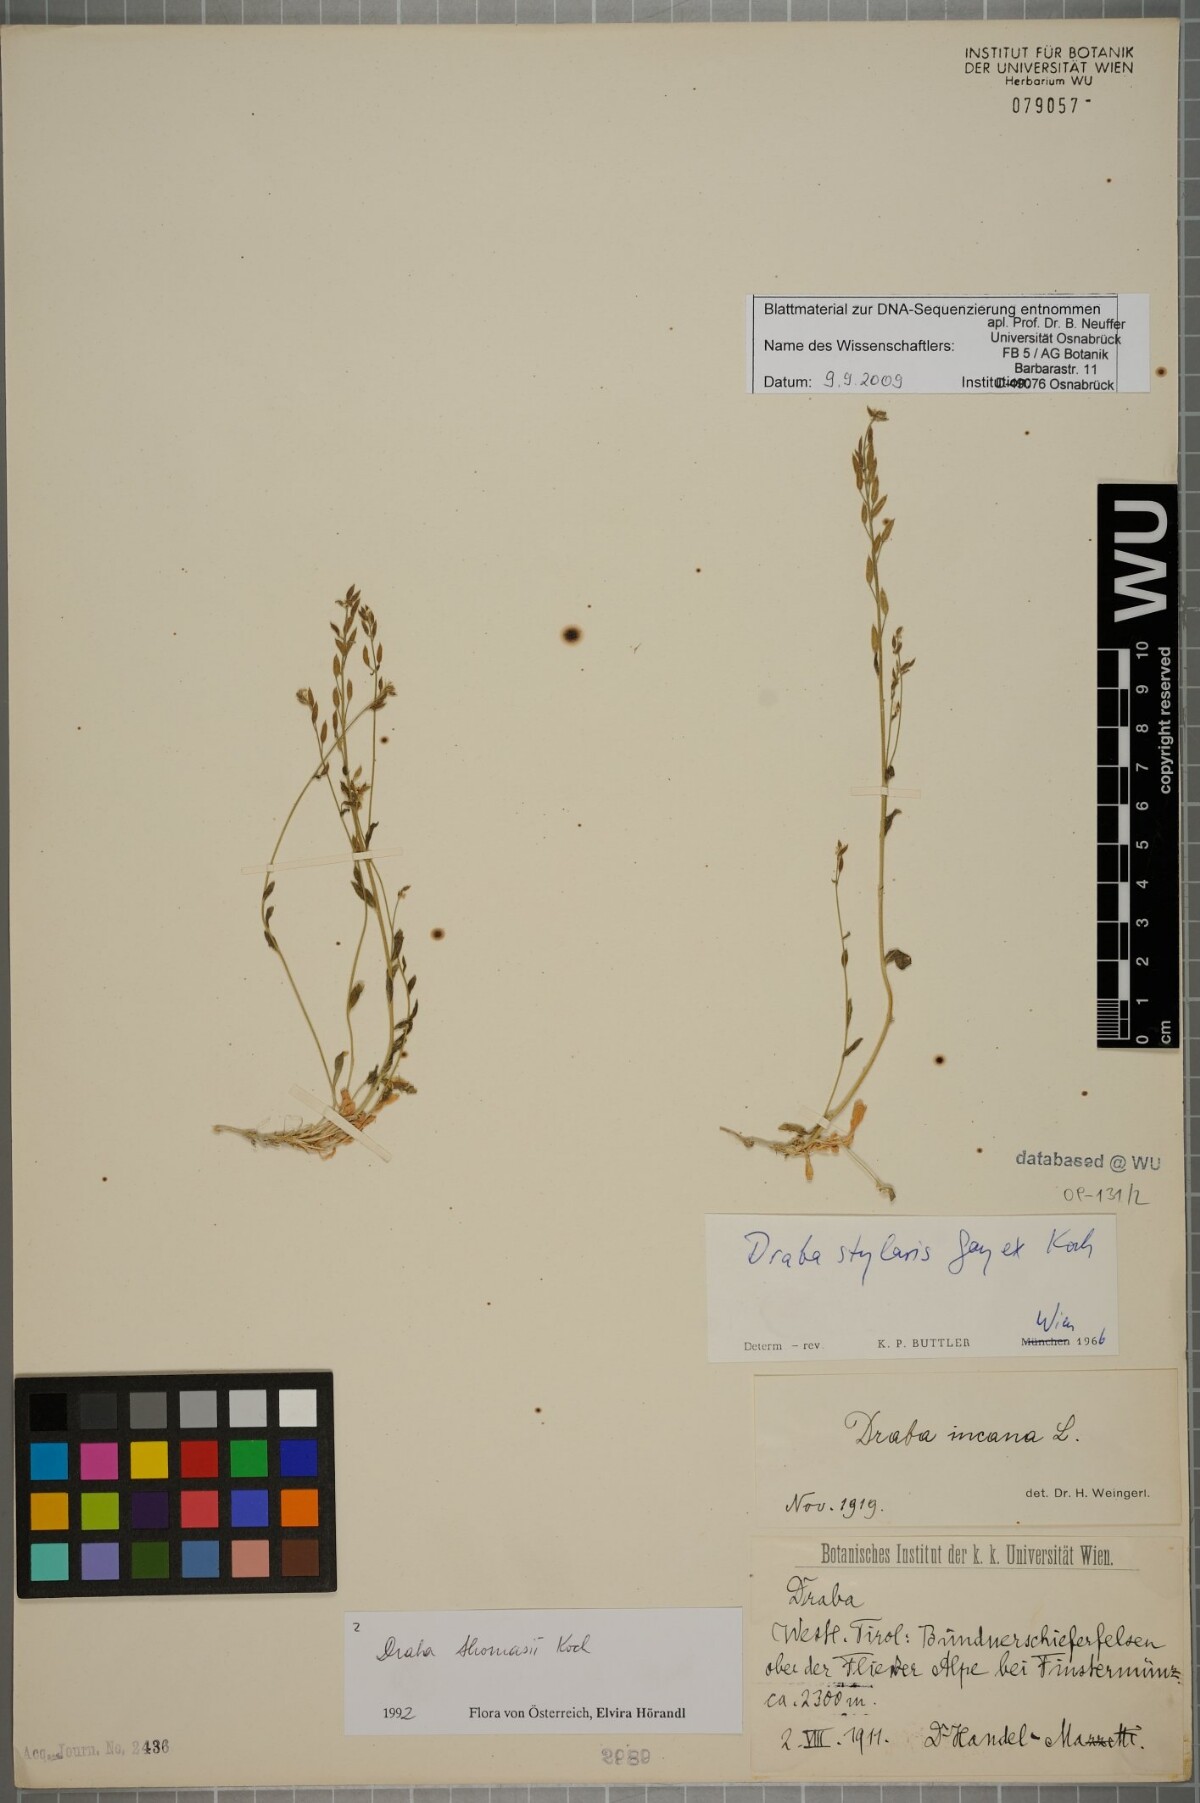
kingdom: Plantae
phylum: Tracheophyta
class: Magnoliopsida
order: Brassicales
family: Brassicaceae
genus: Draba
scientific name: Draba thomasii
